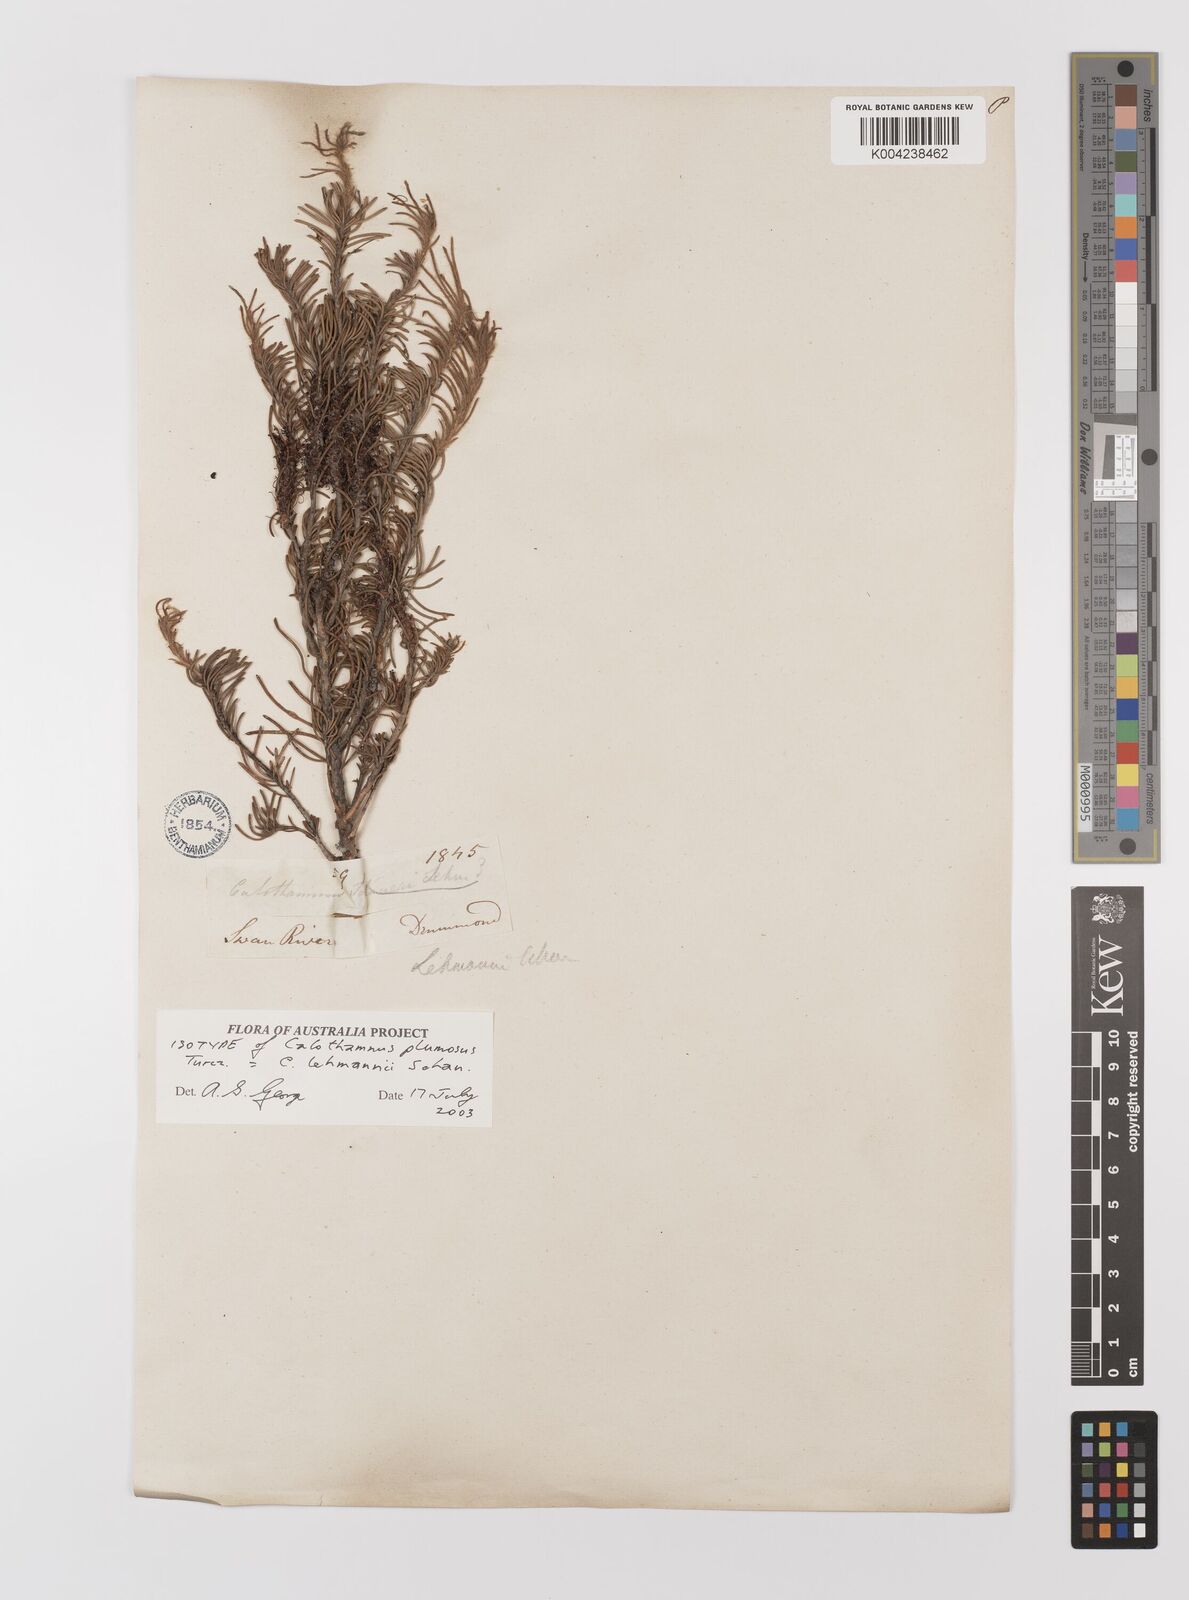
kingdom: Plantae
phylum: Tracheophyta
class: Magnoliopsida
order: Myrtales
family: Myrtaceae
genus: Melaleuca
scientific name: Melaleuca johannis-lehmannii
